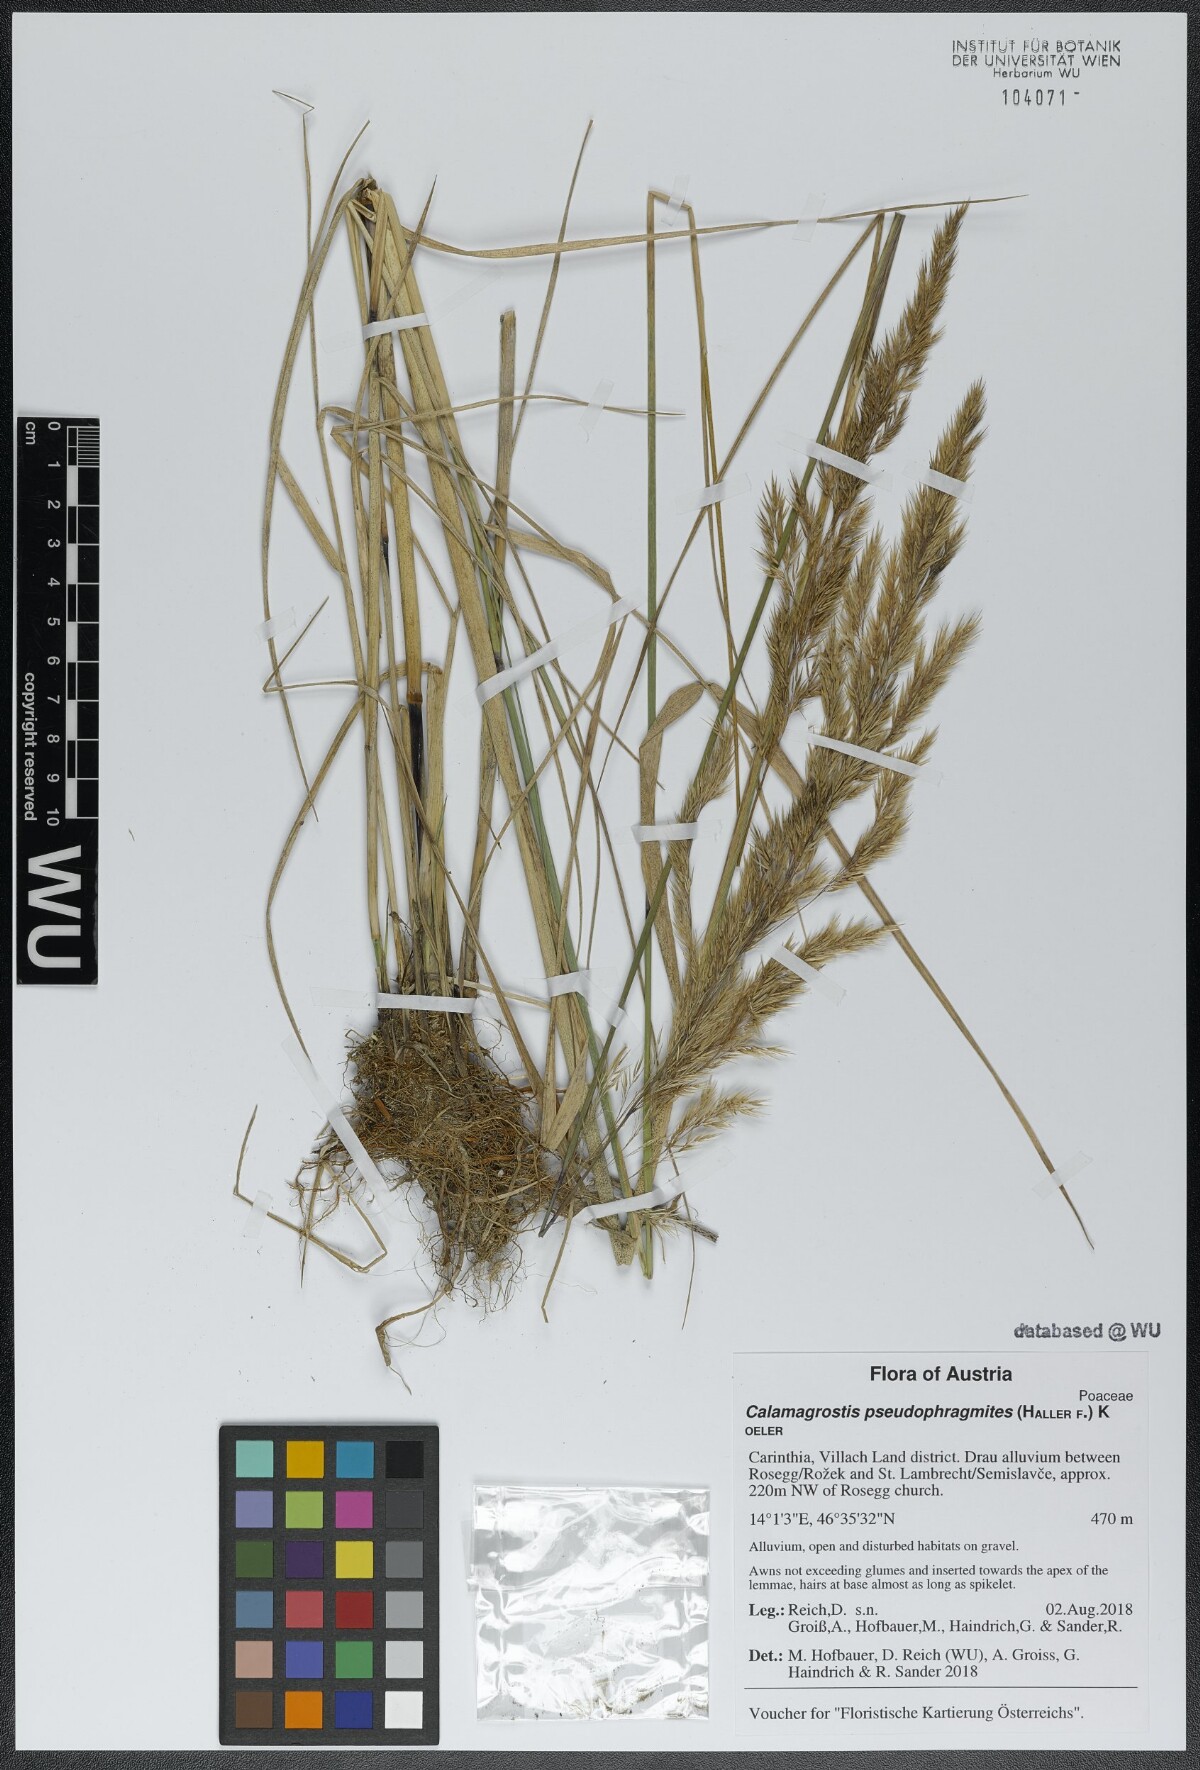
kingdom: Plantae
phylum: Tracheophyta
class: Liliopsida
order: Poales
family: Poaceae
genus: Calamagrostis
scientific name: Calamagrostis pseudophragmites
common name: Coastal small-reed
